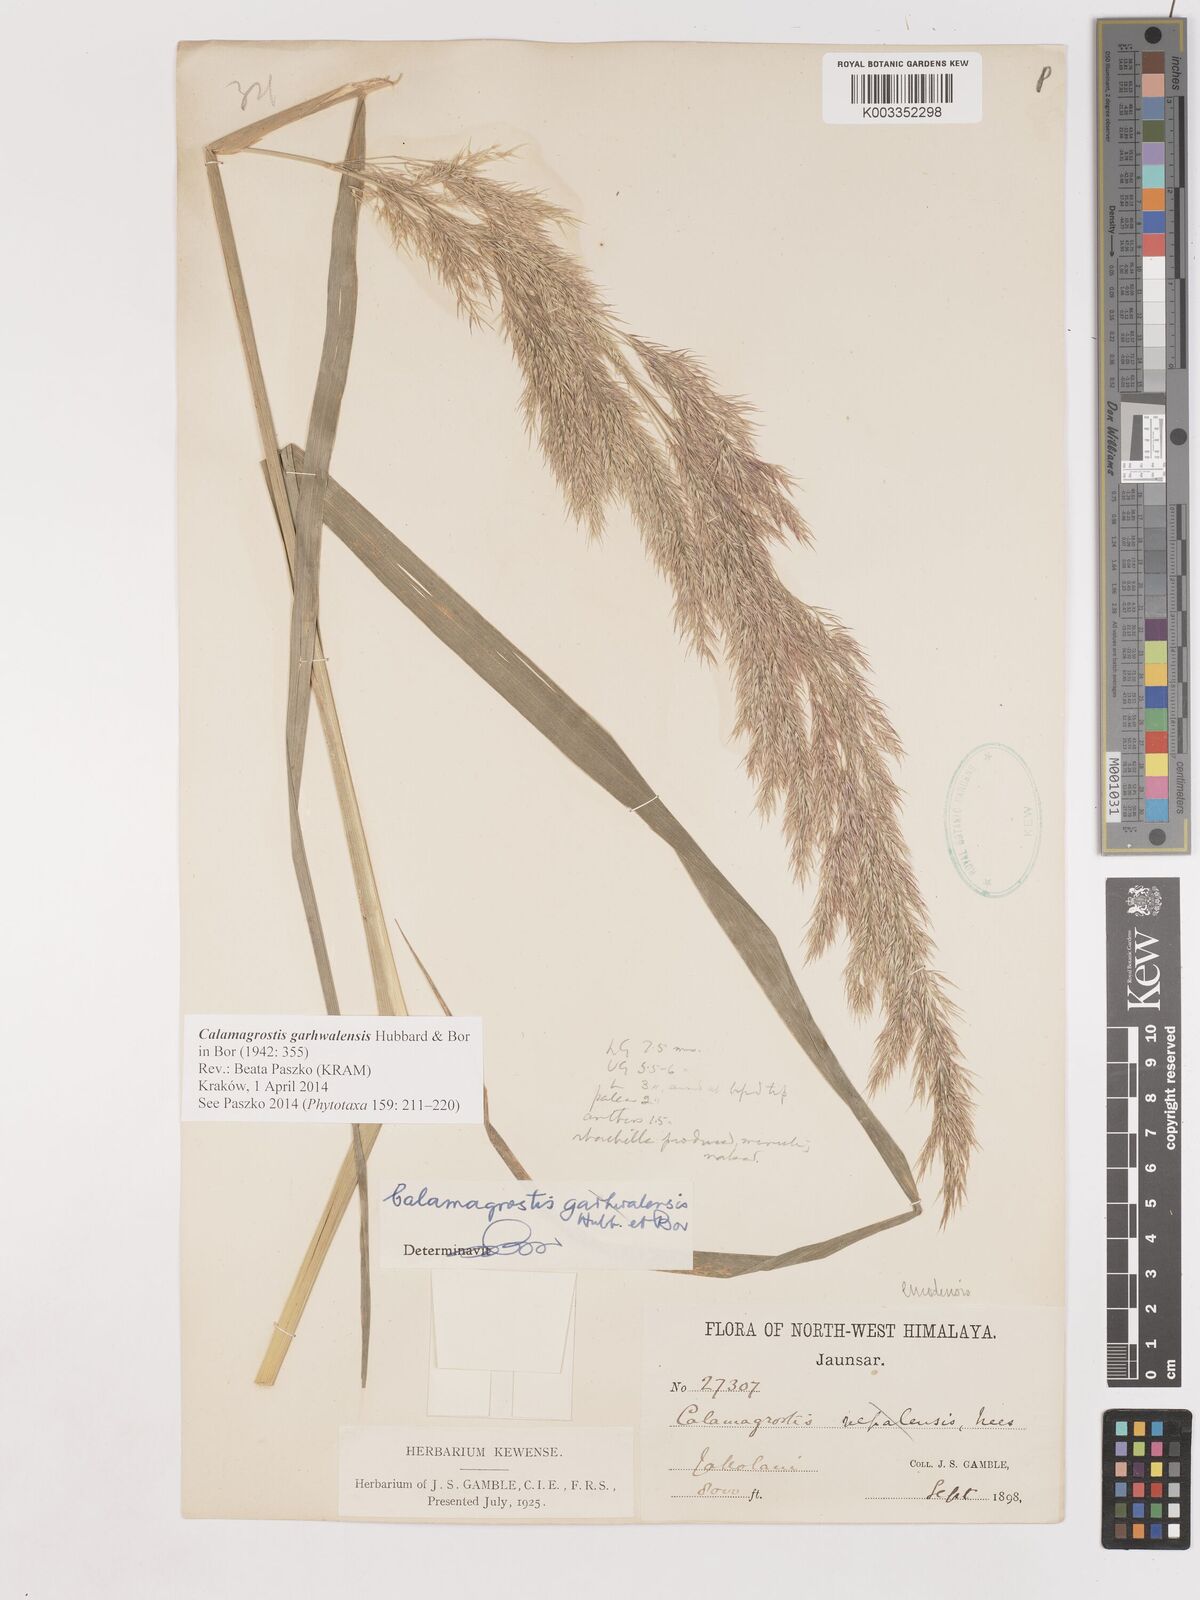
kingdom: Plantae
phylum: Tracheophyta
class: Liliopsida
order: Poales
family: Poaceae
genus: Calamagrostis
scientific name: Calamagrostis emodensis
